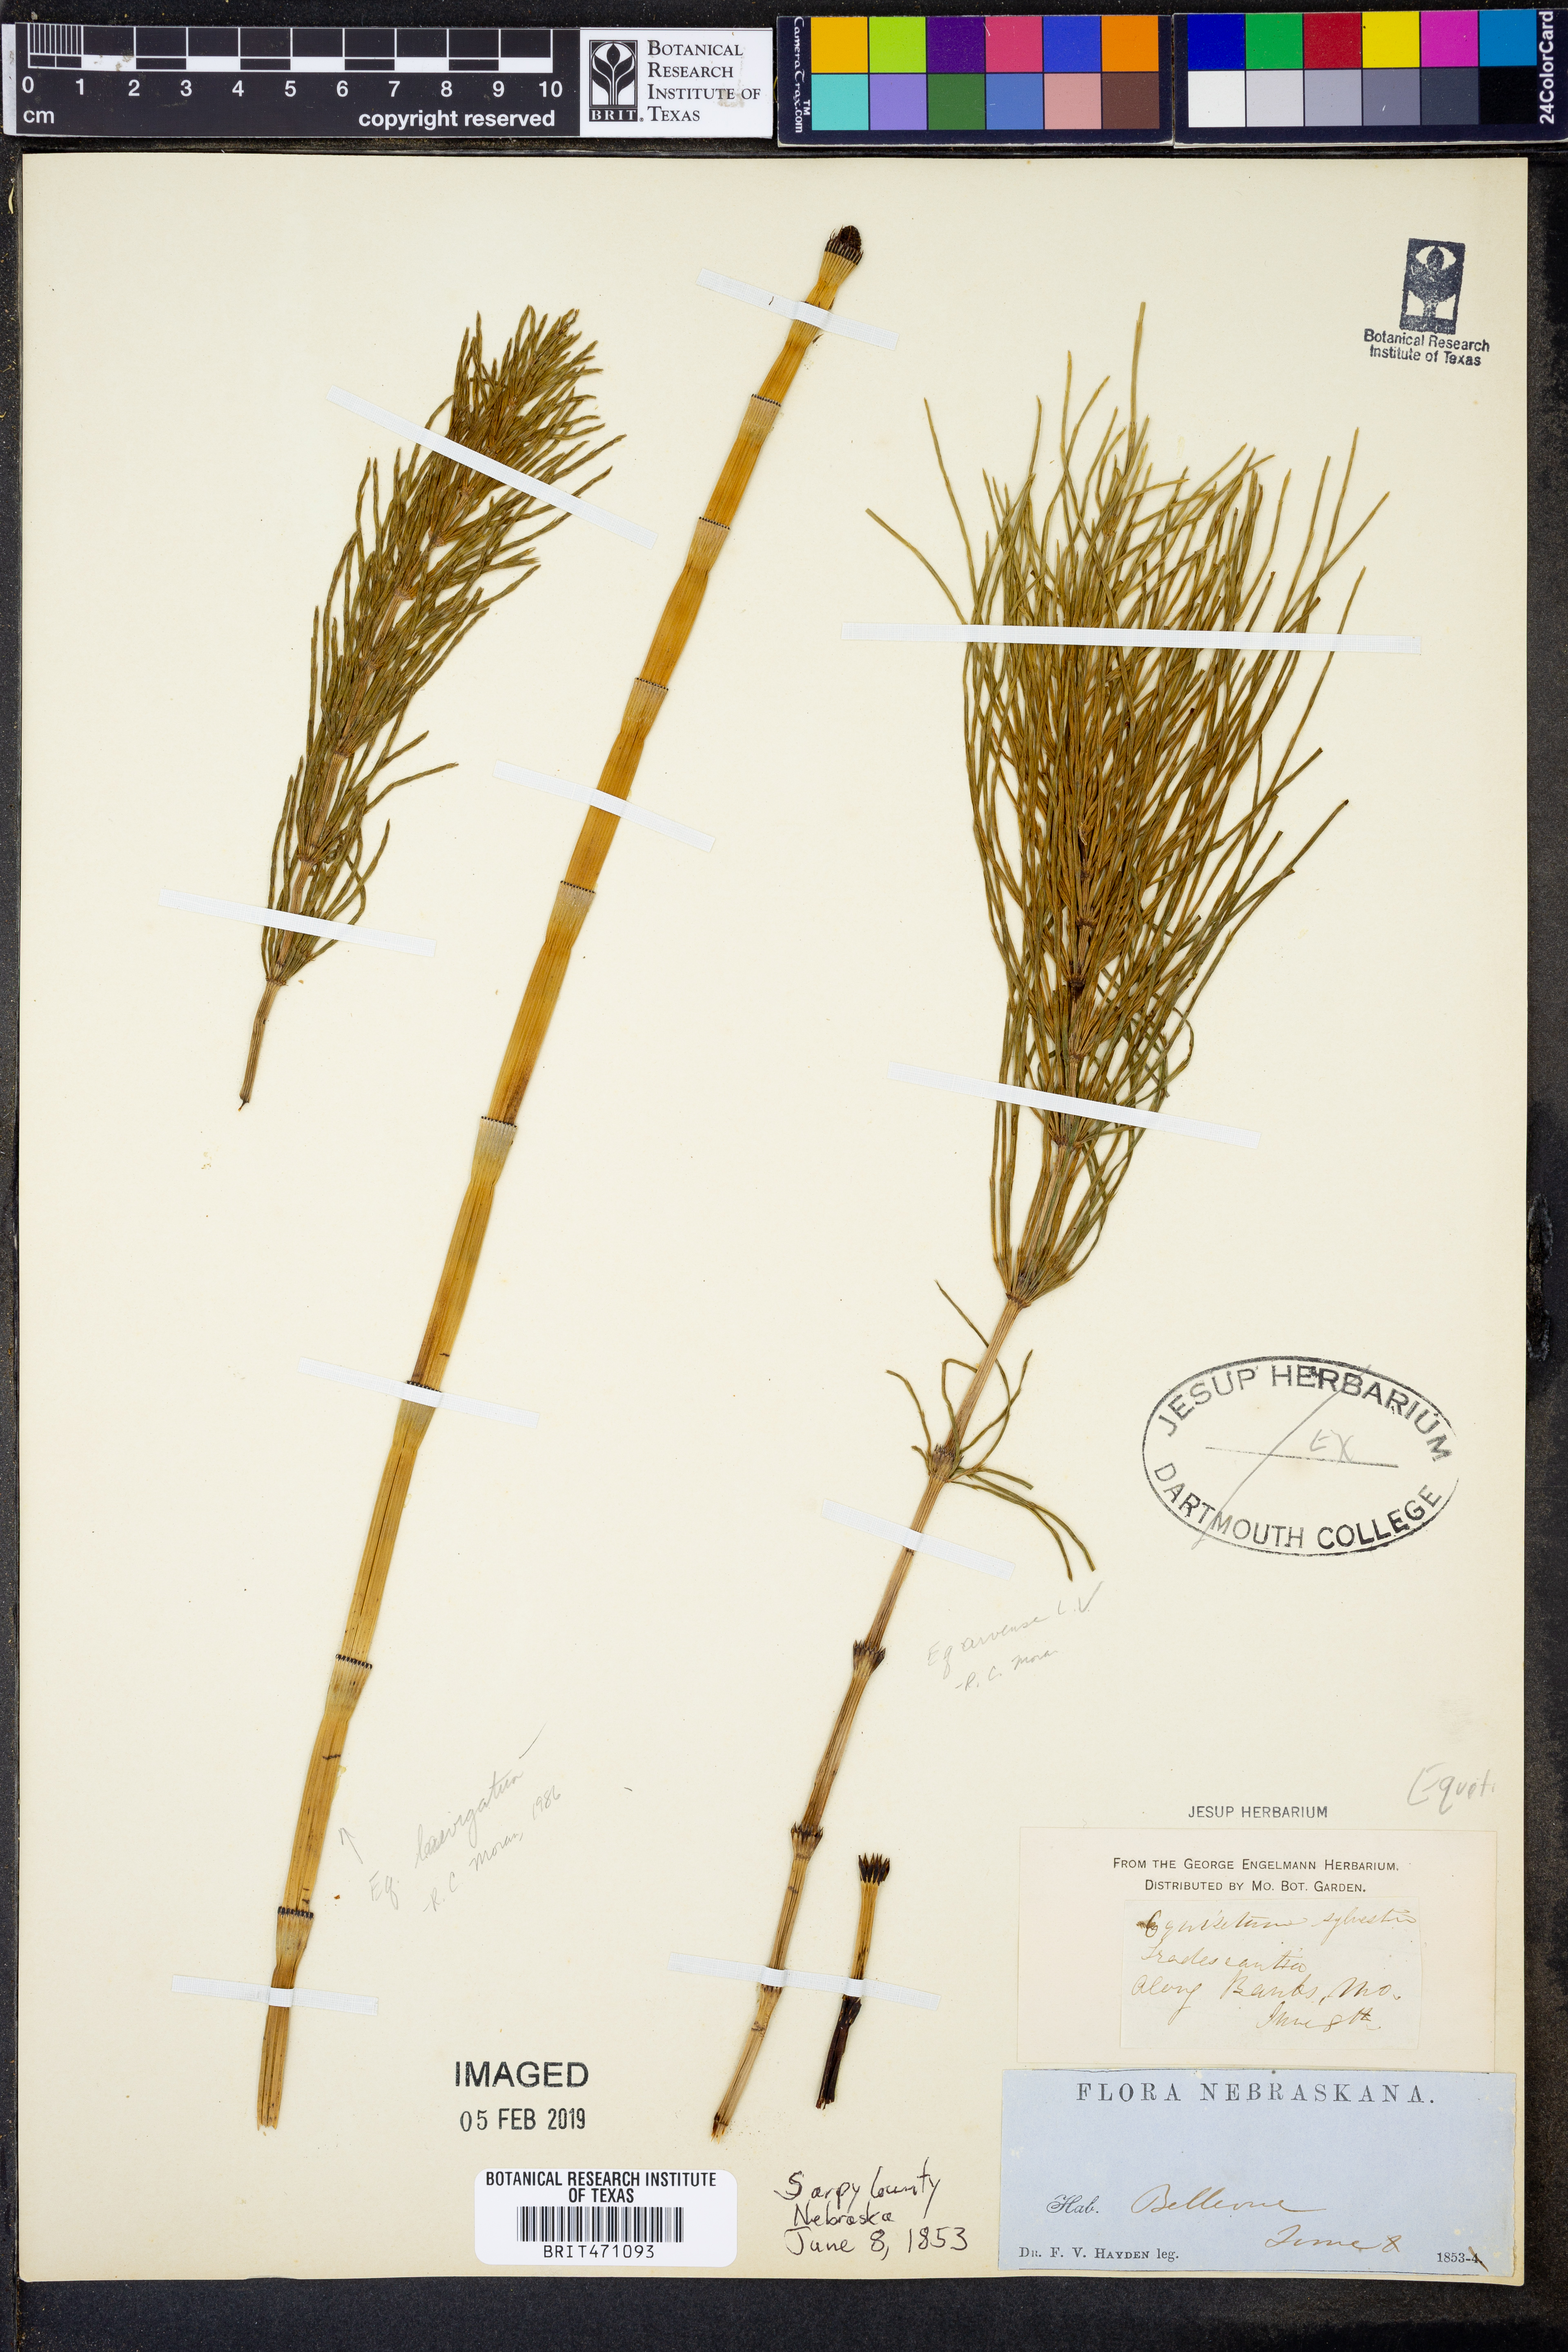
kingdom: Plantae
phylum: Tracheophyta
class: Polypodiopsida
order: Equisetales
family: Equisetaceae
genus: Equisetum
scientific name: Equisetum laevigatum
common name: Smooth scouring-rush
